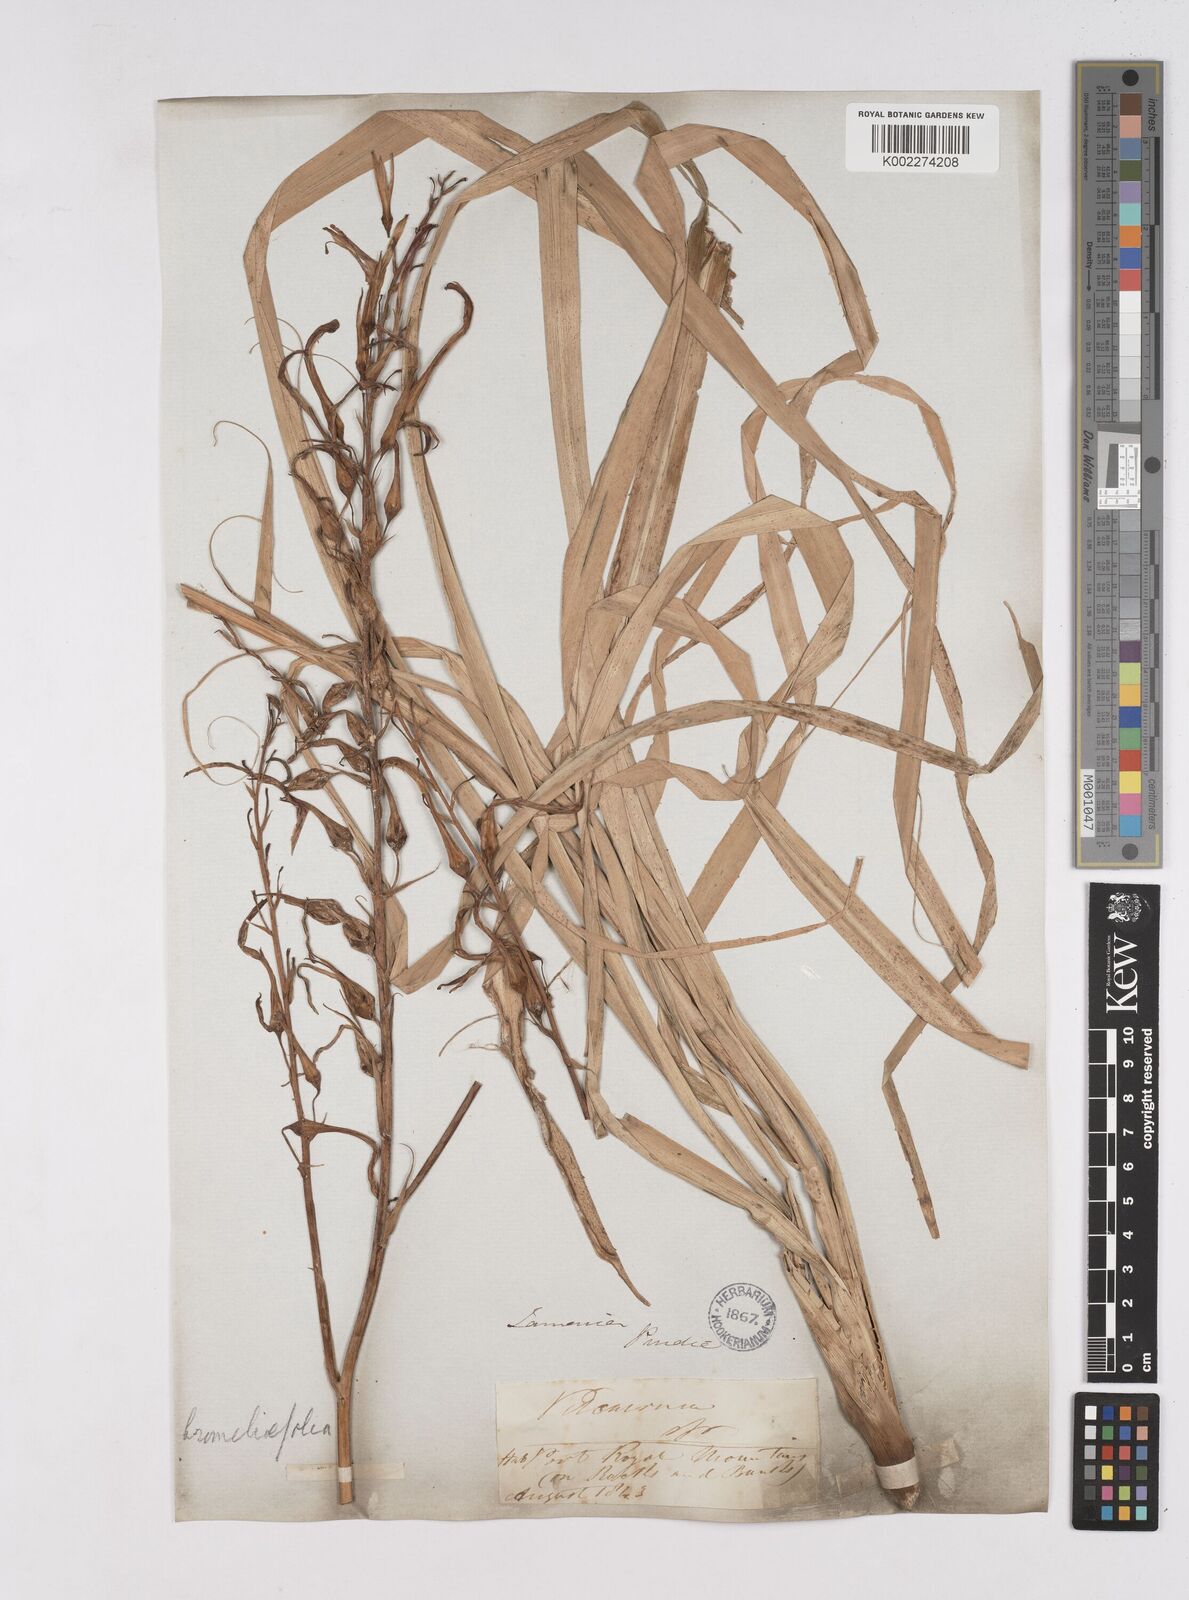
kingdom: Plantae
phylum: Tracheophyta
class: Liliopsida
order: Poales
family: Bromeliaceae
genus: Pitcairnia
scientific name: Pitcairnia bromeliifolia
